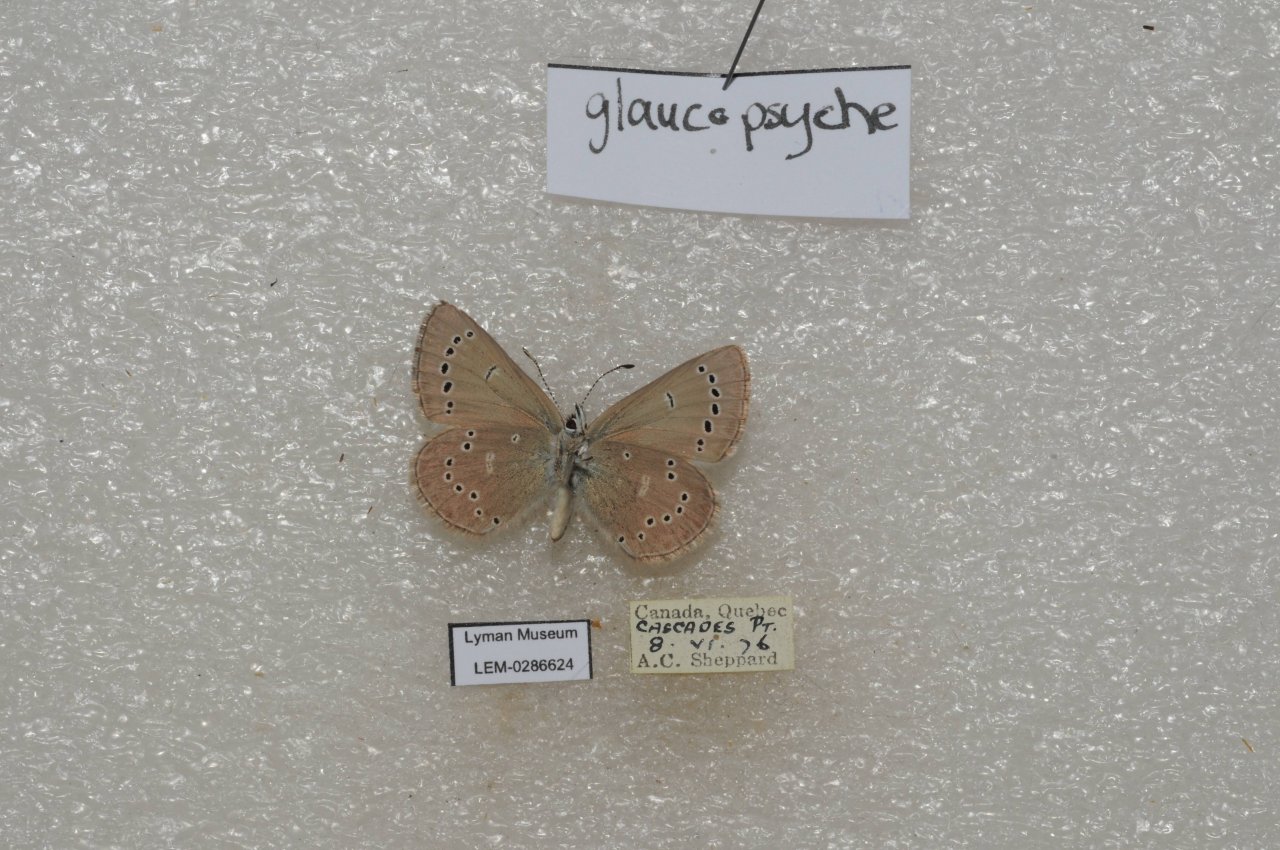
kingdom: Animalia
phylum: Arthropoda
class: Insecta
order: Lepidoptera
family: Lycaenidae
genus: Glaucopsyche
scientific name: Glaucopsyche lygdamus
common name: Silvery Blue
